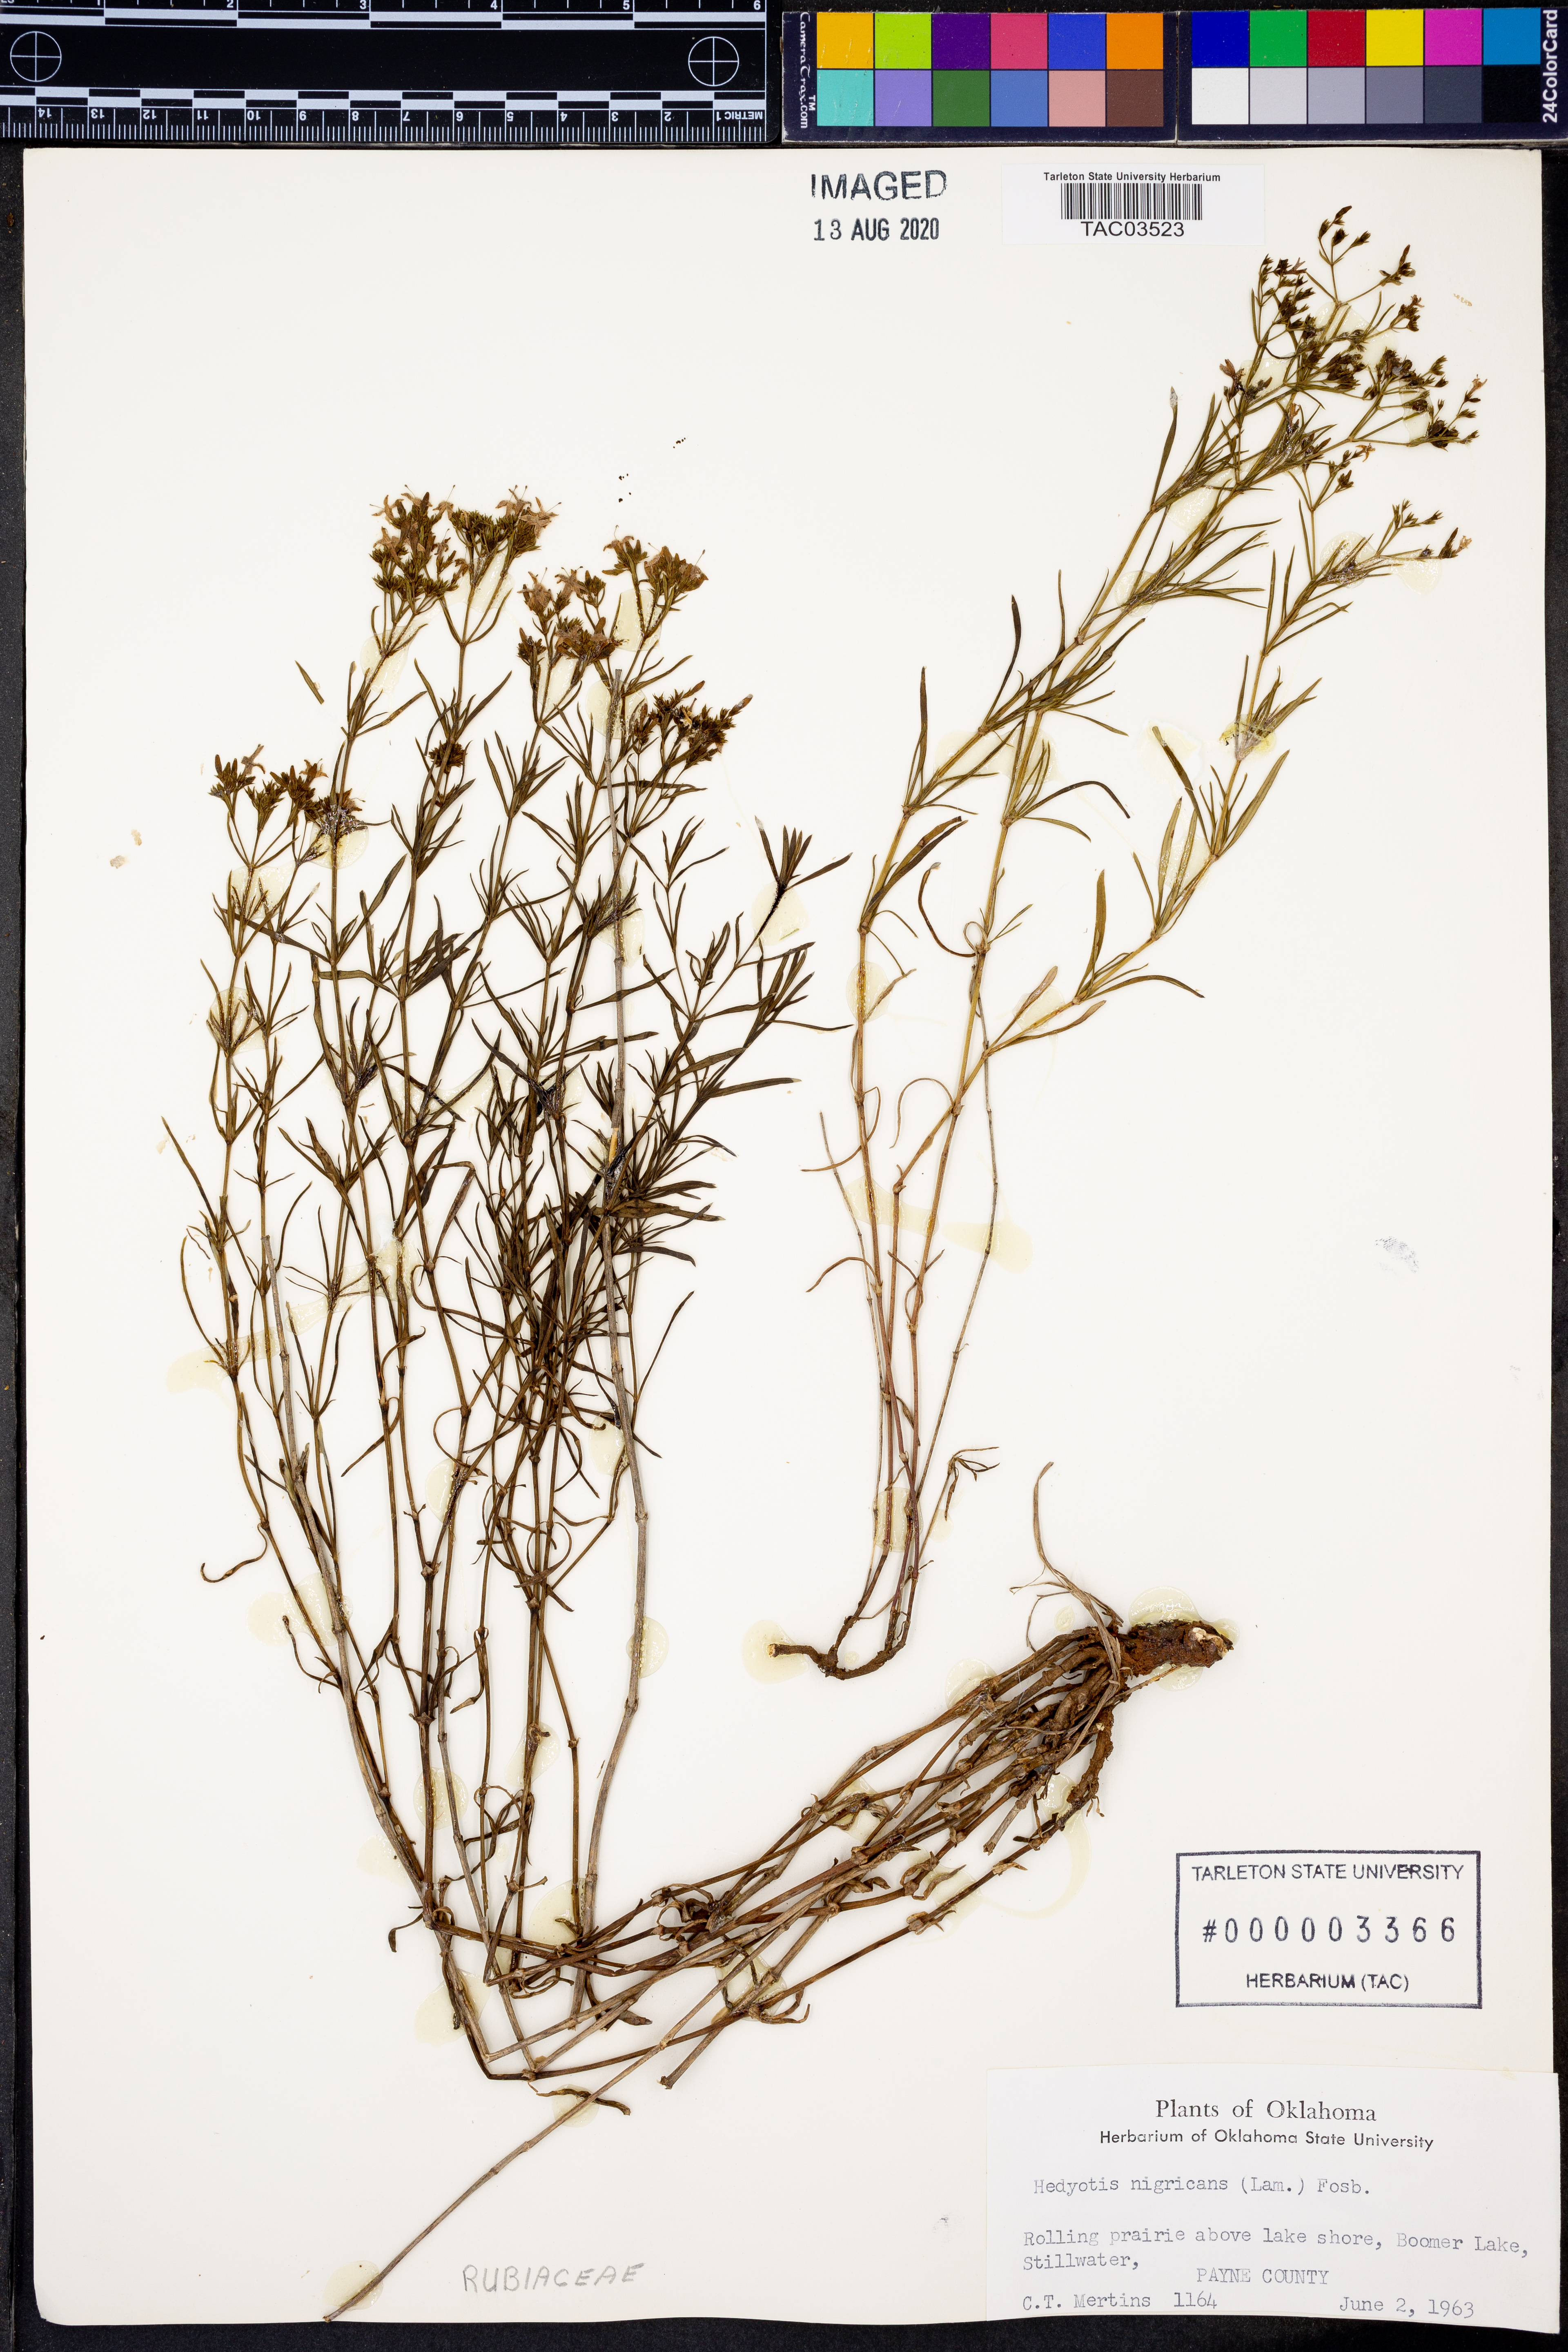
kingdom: Plantae
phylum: Tracheophyta
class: Magnoliopsida
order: Gentianales
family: Rubiaceae
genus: Stenaria
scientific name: Stenaria nigricans
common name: Diamondflowers
